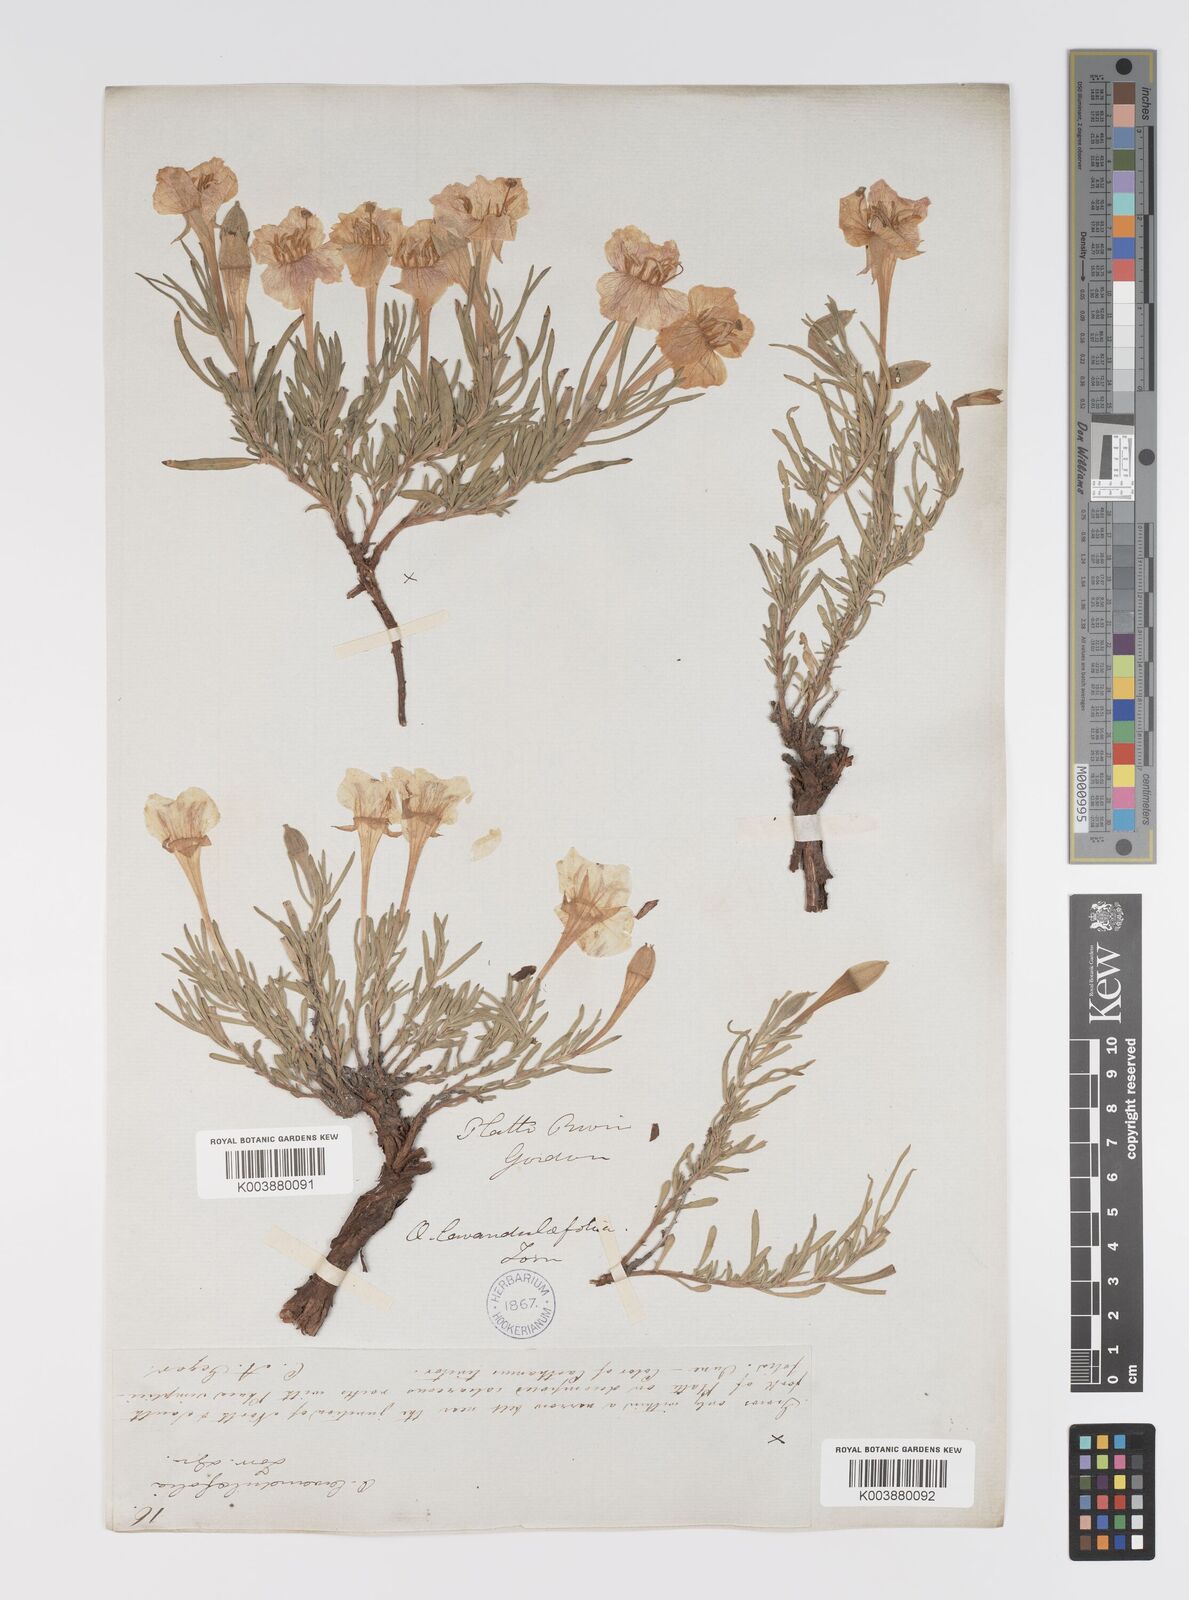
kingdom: Plantae
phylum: Tracheophyta
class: Magnoliopsida
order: Myrtales
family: Onagraceae
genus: Oenothera
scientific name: Oenothera lavandulifolia
